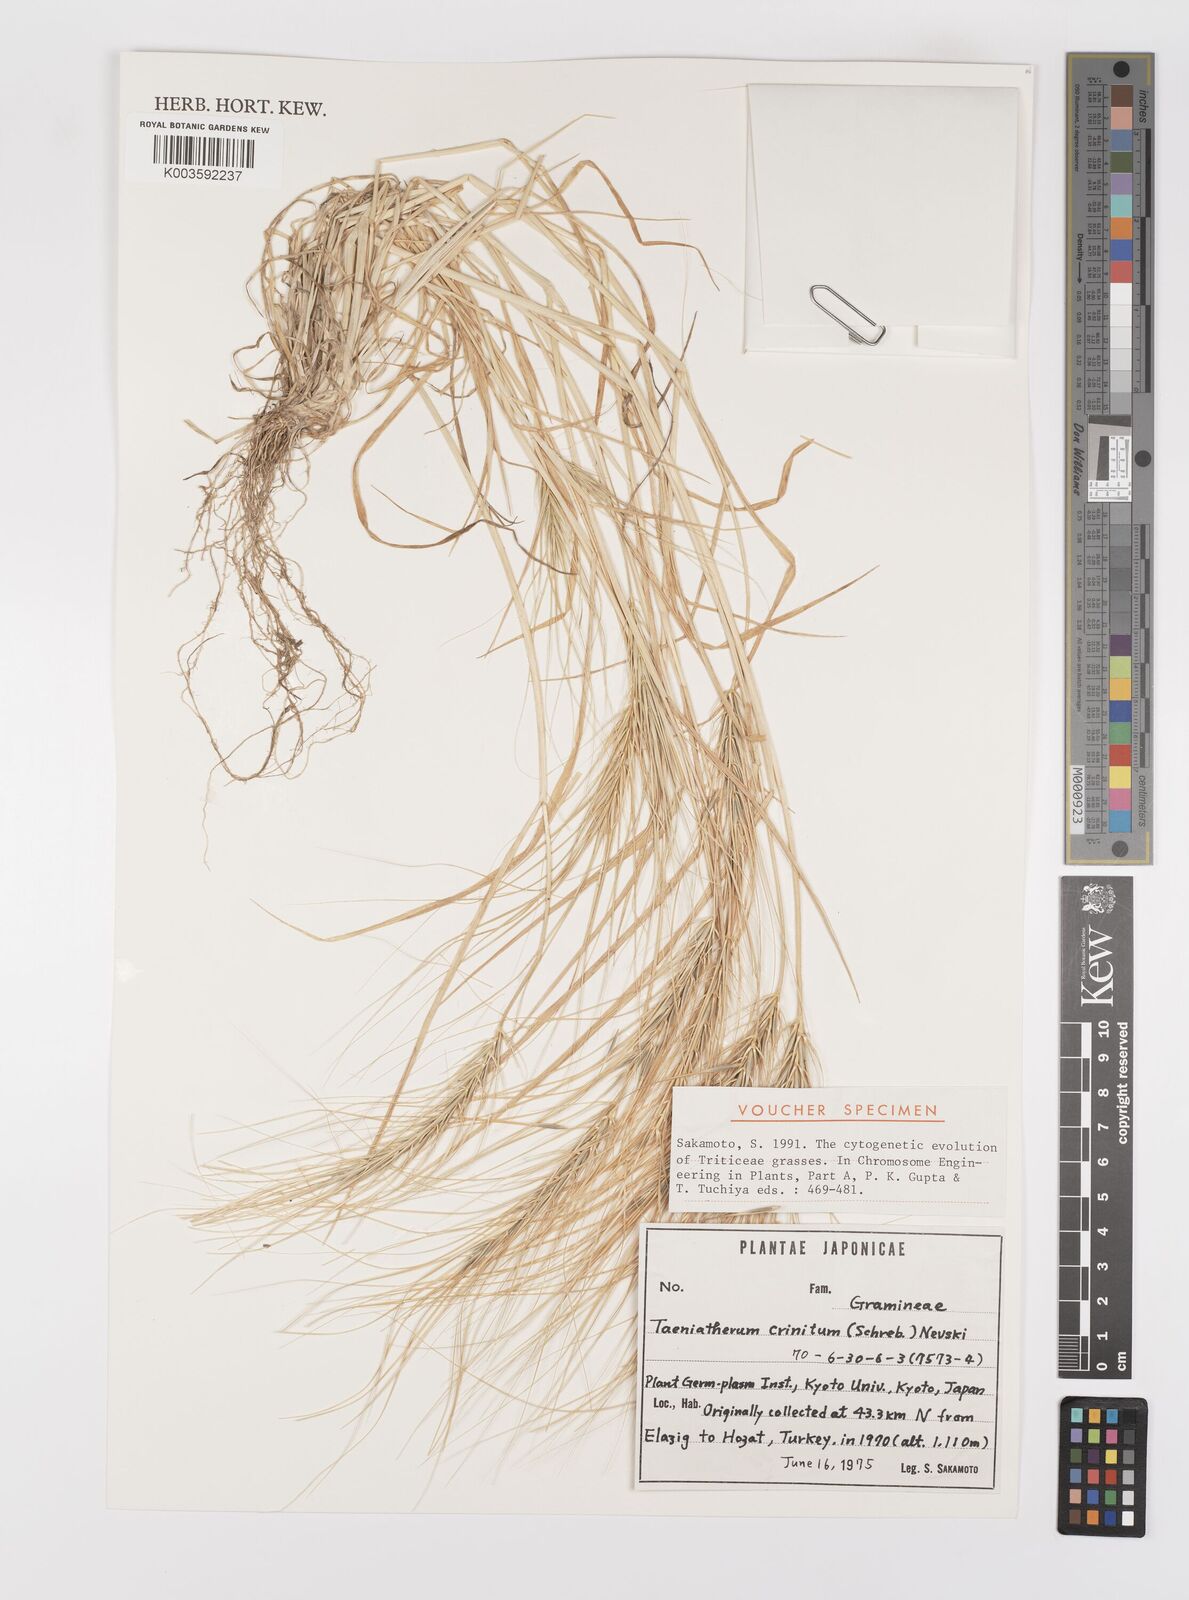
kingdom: Plantae
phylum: Tracheophyta
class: Liliopsida
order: Poales
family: Poaceae
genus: Taeniatherum
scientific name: Taeniatherum caput-medusae
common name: Medusahead
